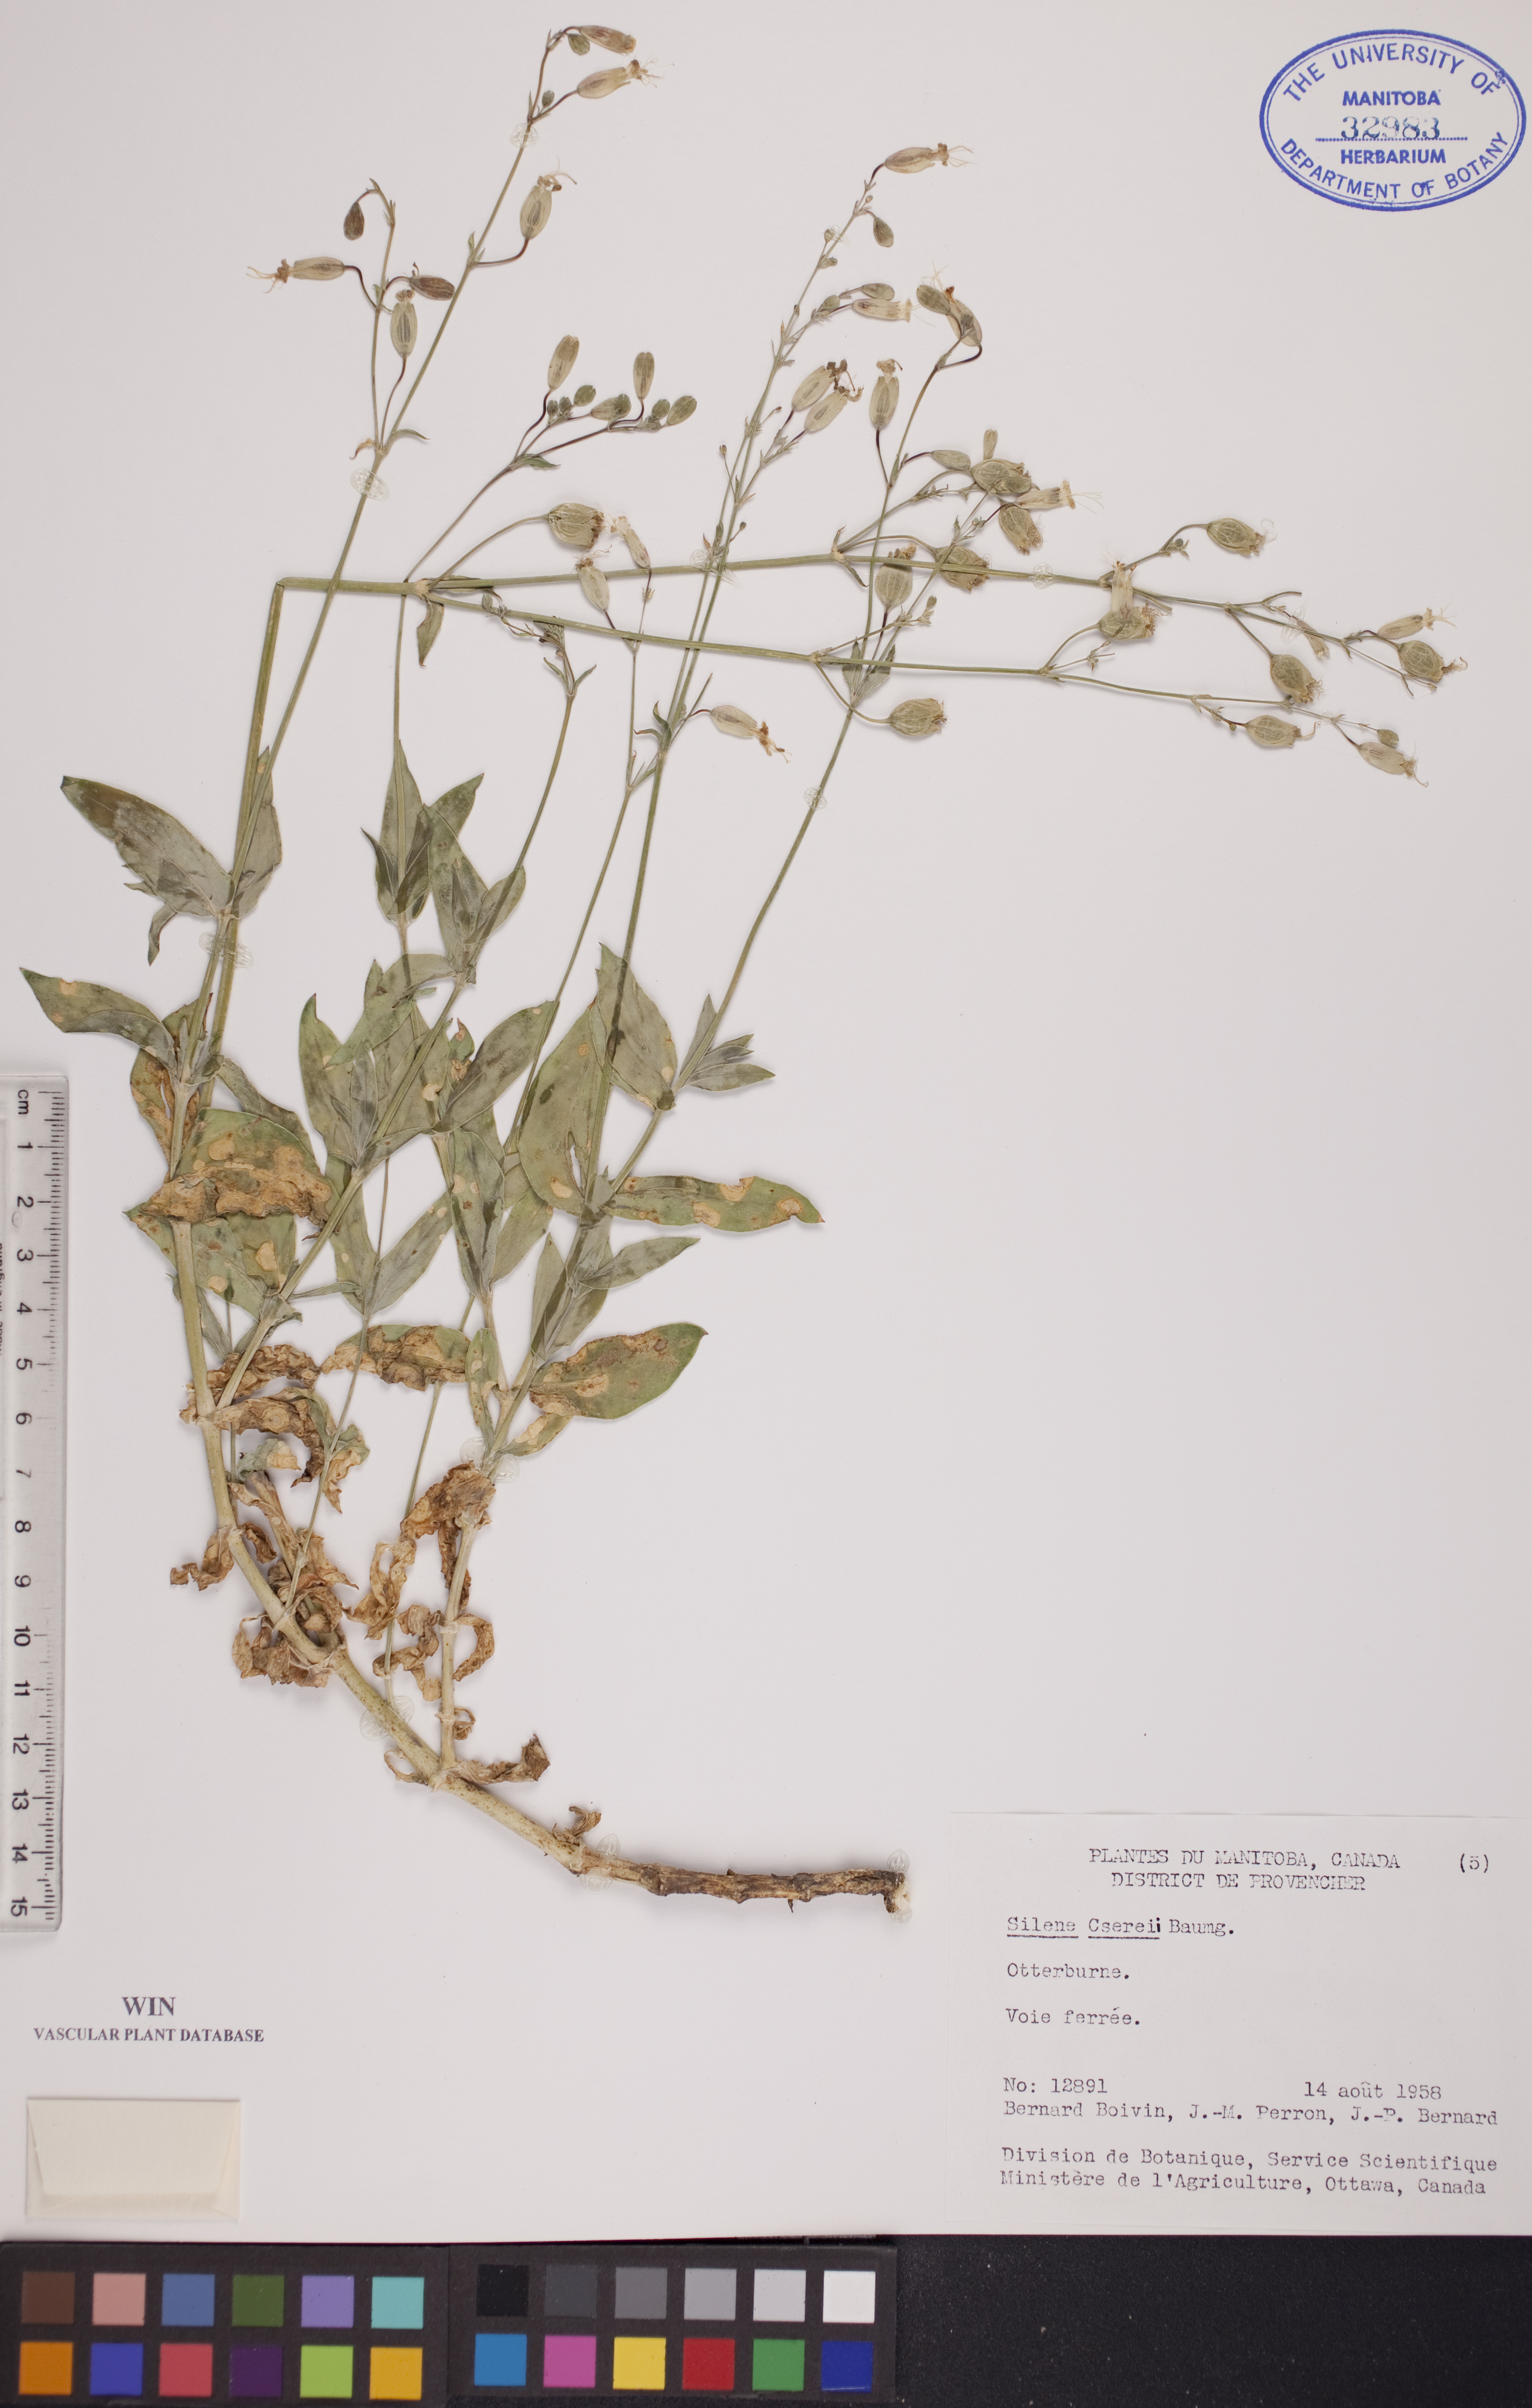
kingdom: Plantae
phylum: Tracheophyta
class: Magnoliopsida
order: Caryophyllales
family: Caryophyllaceae
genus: Silene
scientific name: Silene csereii
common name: Balkan catchfly
